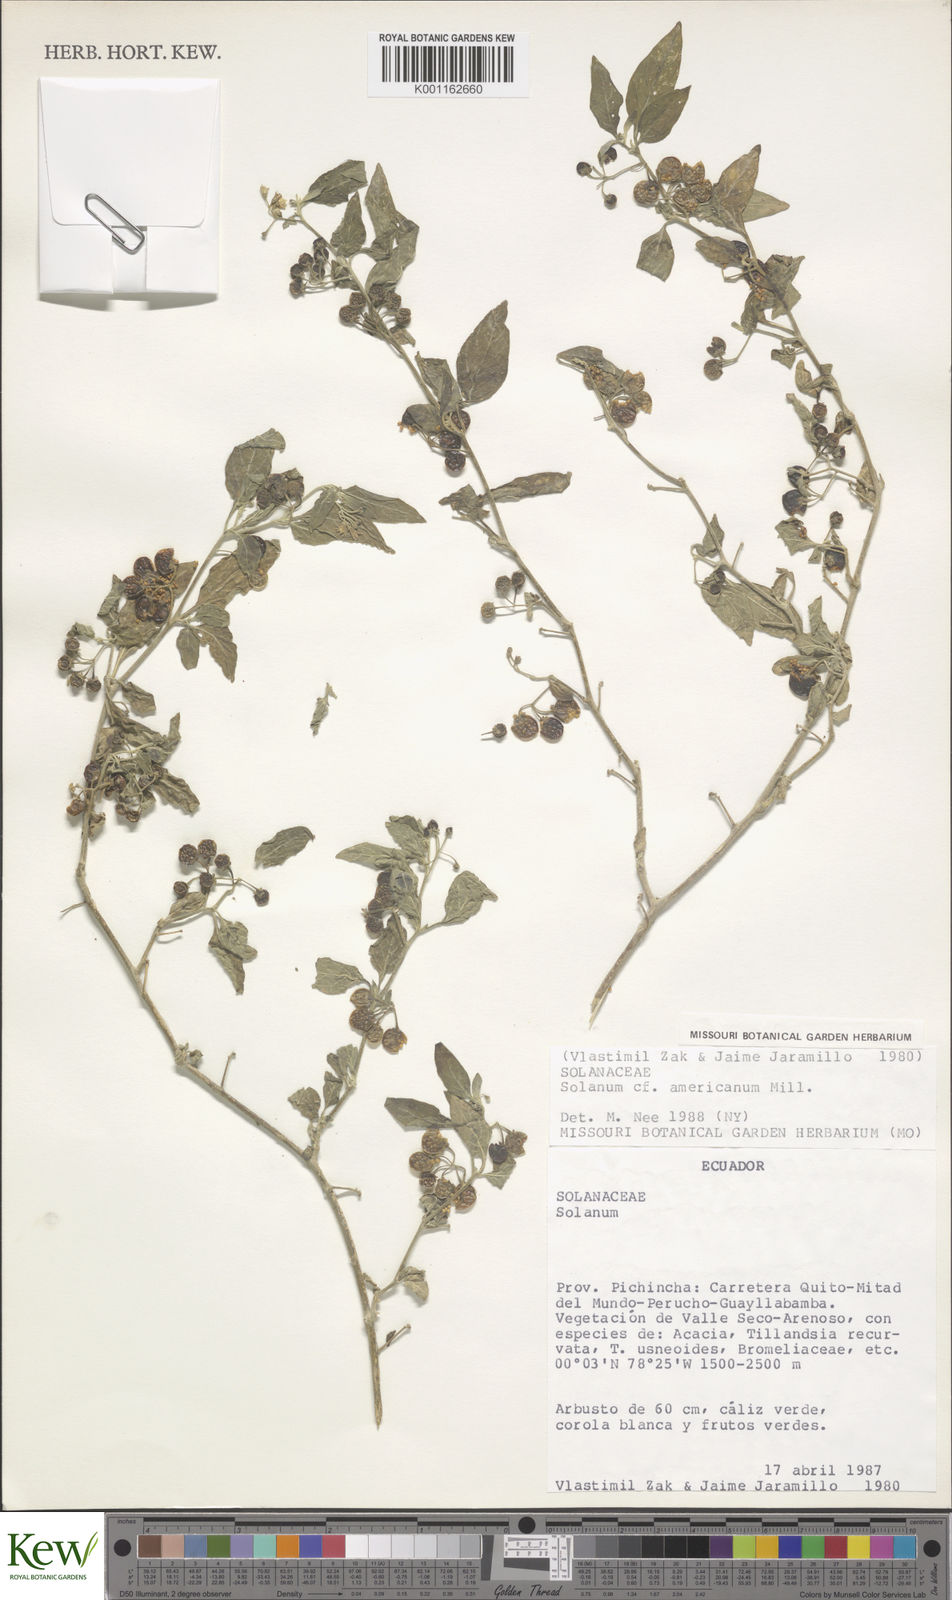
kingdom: Plantae
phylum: Tracheophyta
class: Magnoliopsida
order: Solanales
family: Solanaceae
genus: Solanum
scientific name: Solanum americanum
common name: American black nightshade
